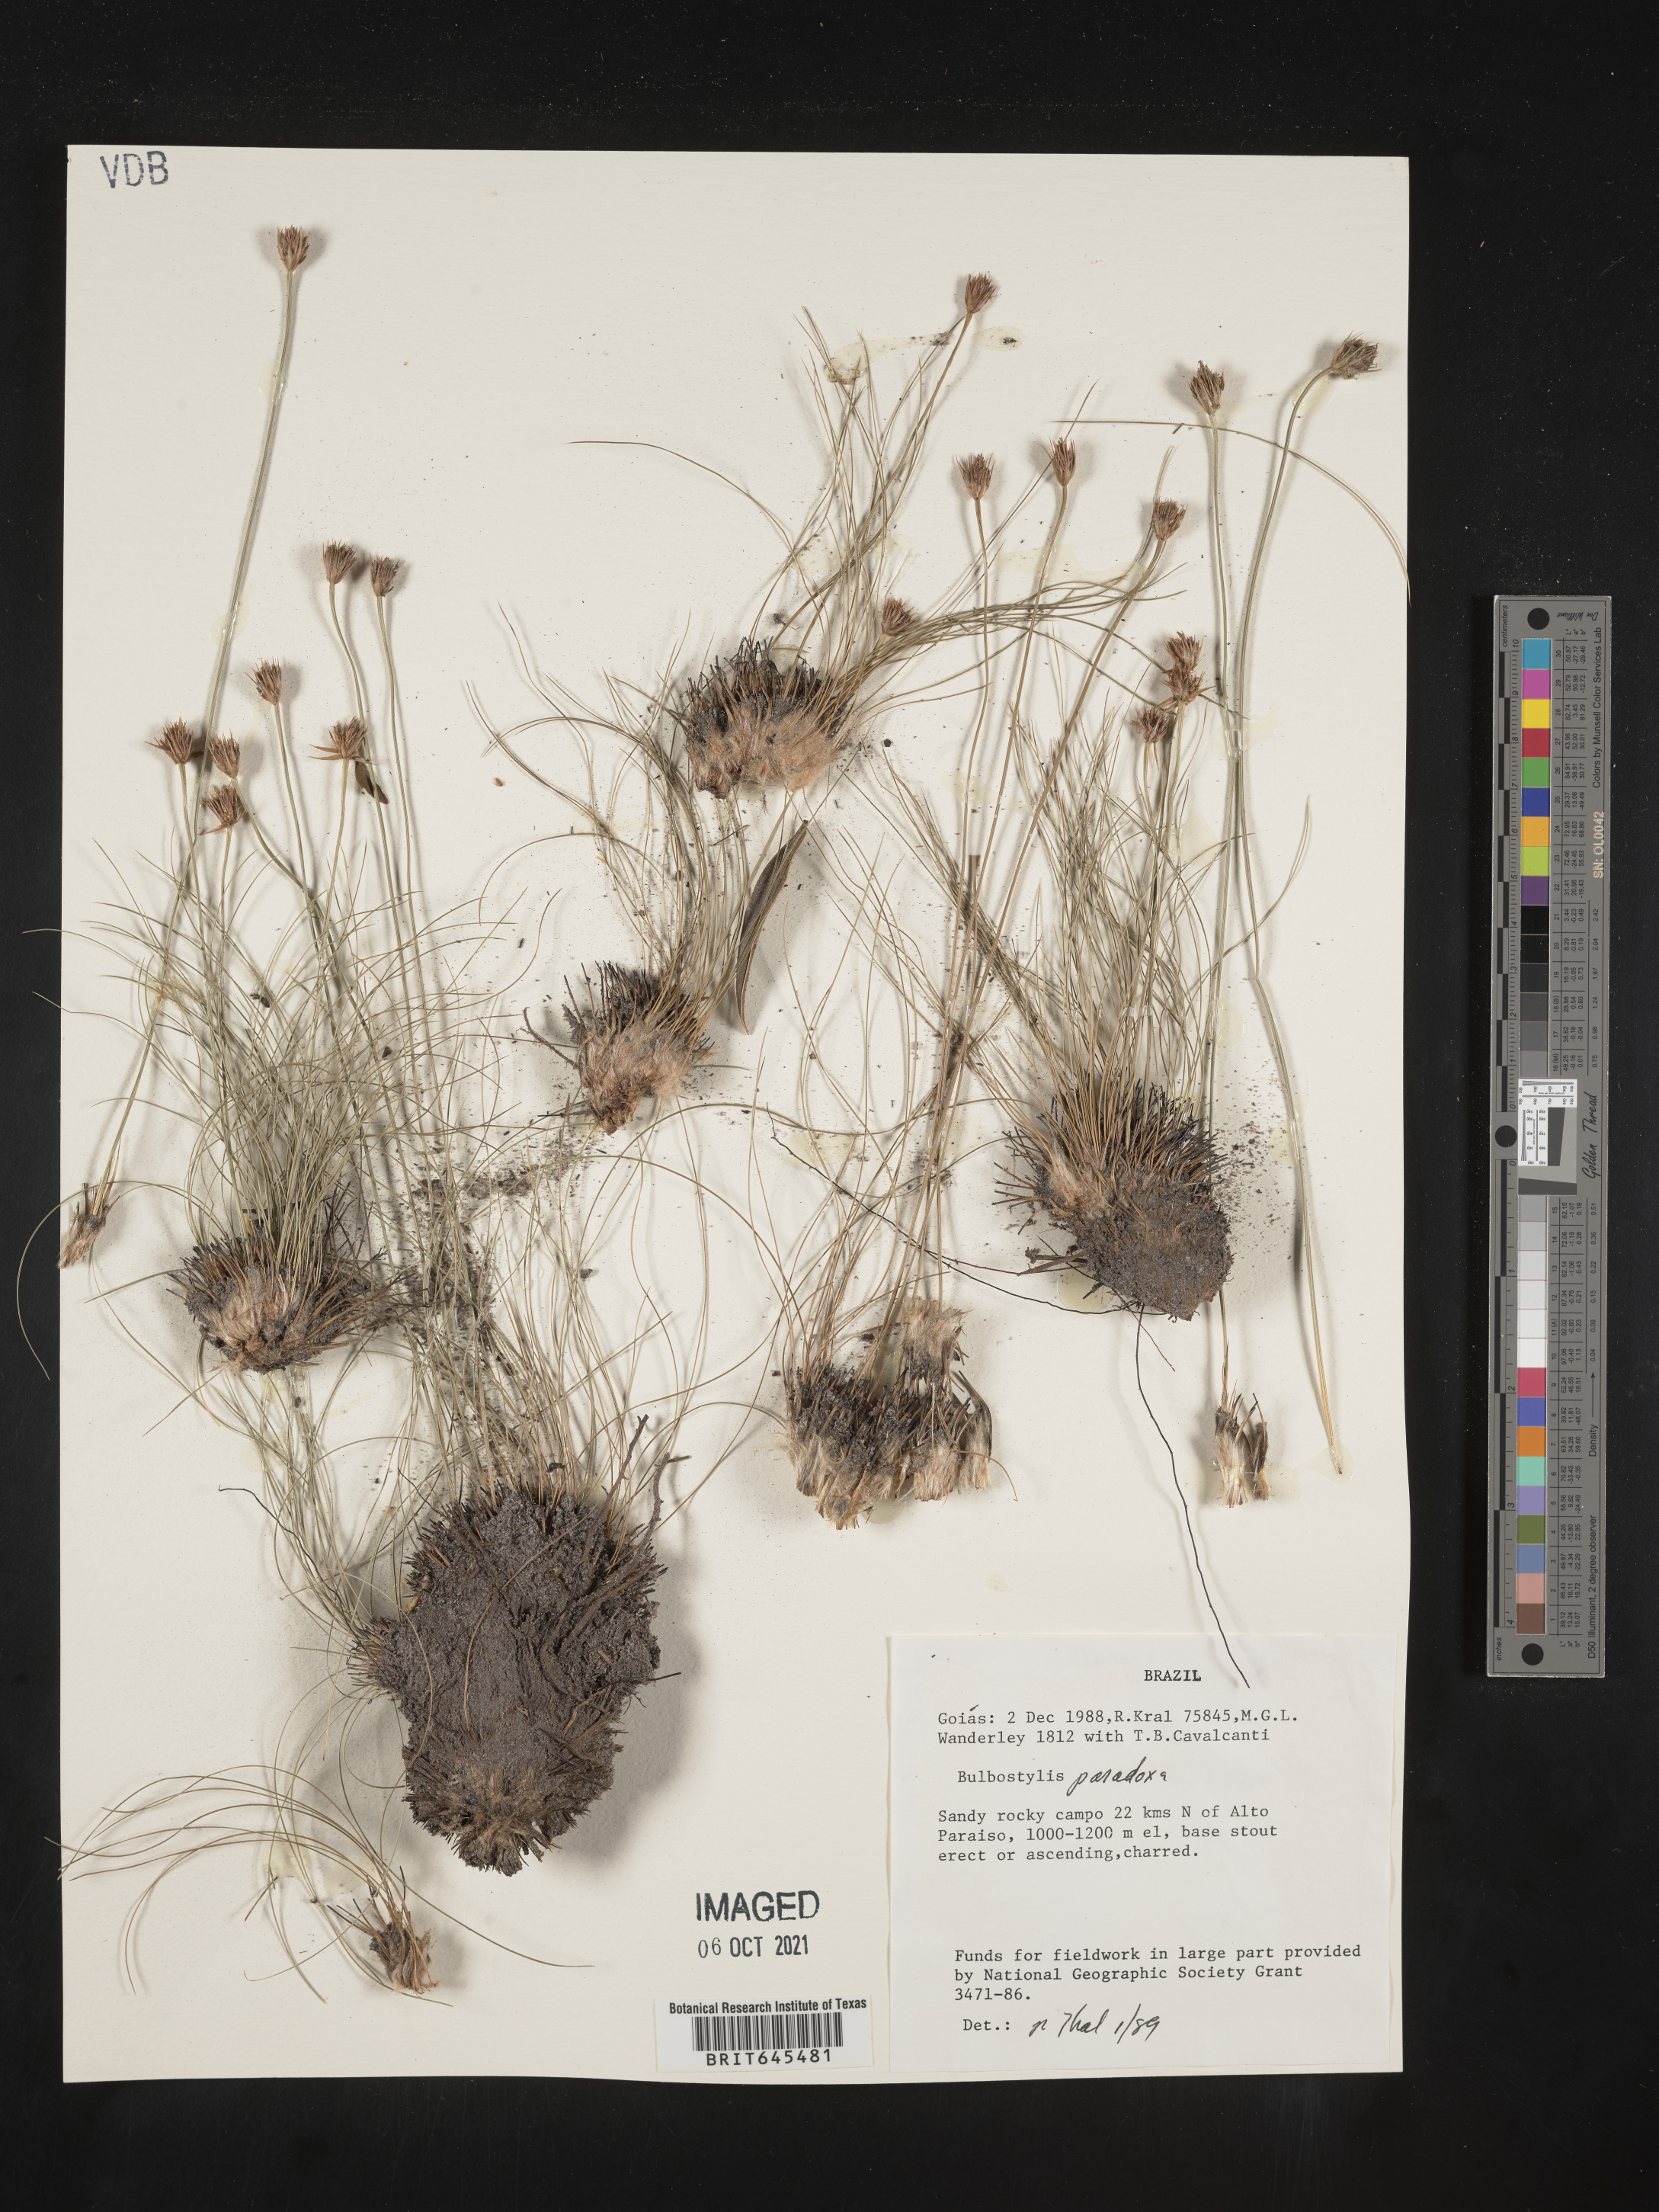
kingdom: Plantae
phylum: Tracheophyta
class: Liliopsida
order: Poales
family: Cyperaceae
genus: Bulbostylis
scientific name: Bulbostylis paradoxa
